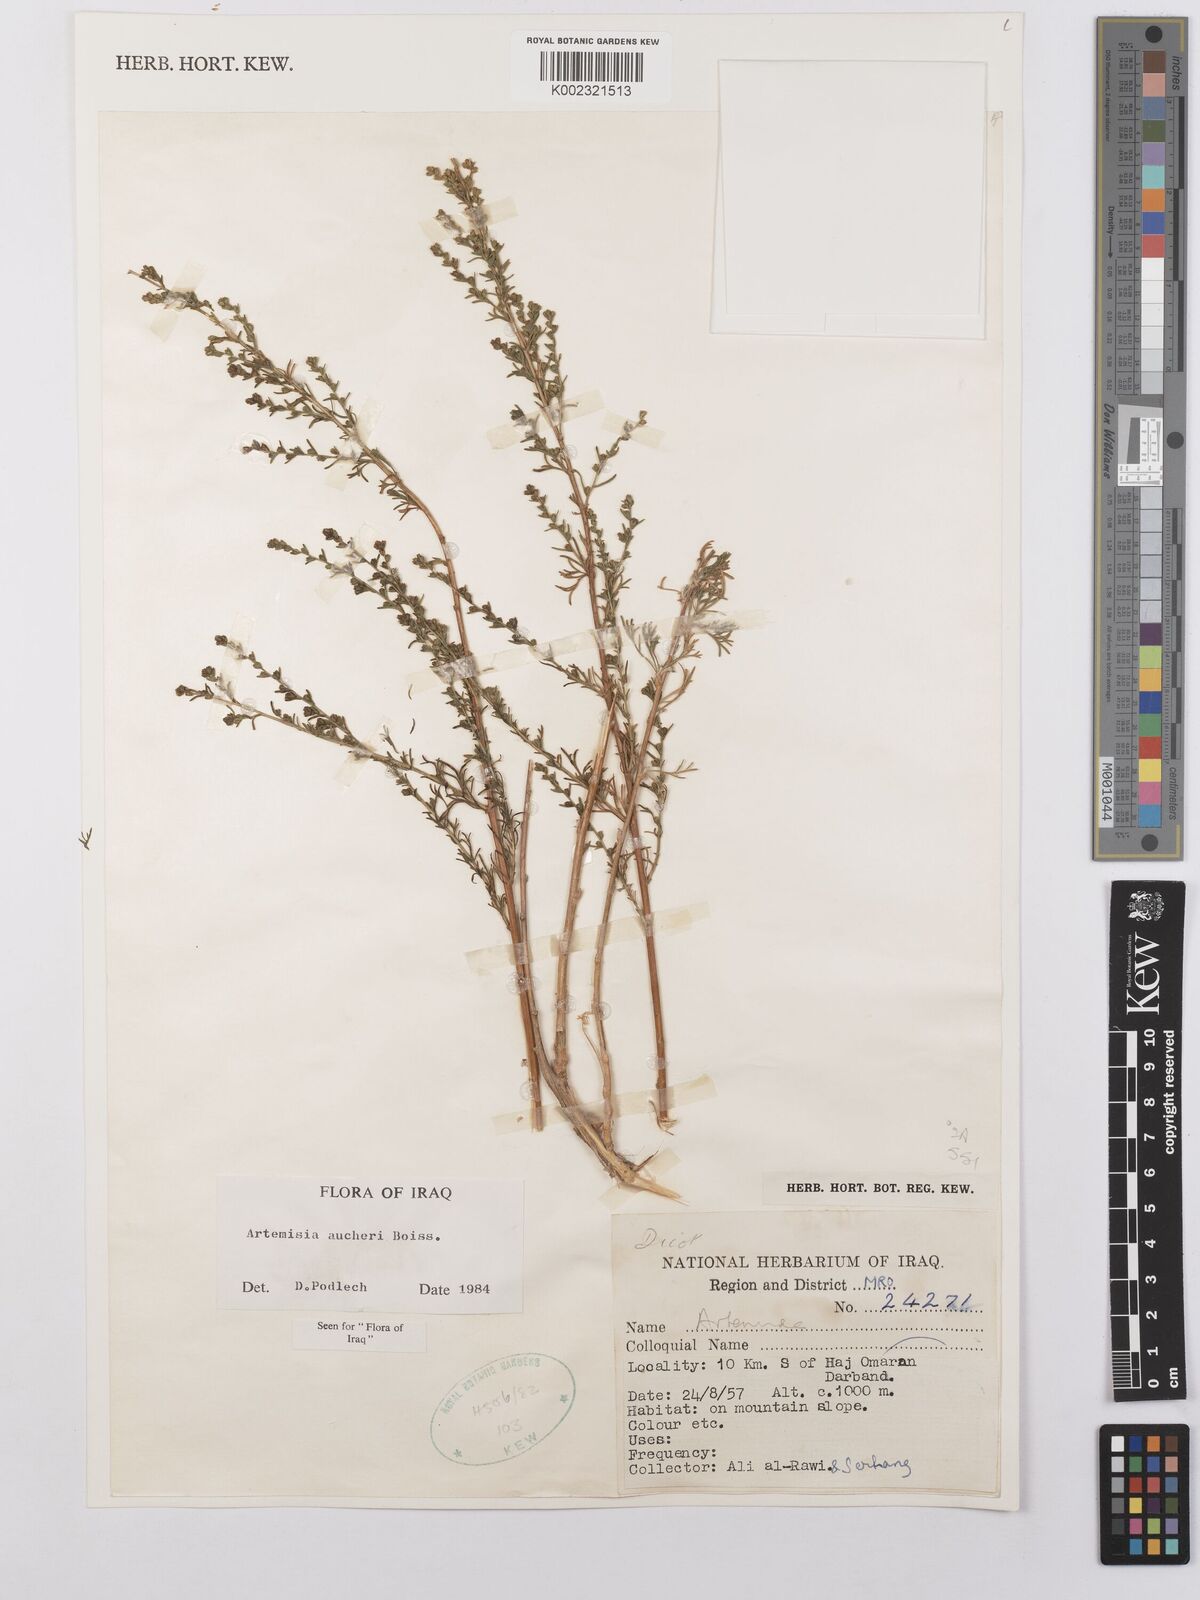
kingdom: Plantae
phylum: Tracheophyta
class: Magnoliopsida
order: Asterales
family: Asteraceae
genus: Artemisia
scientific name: Artemisia aucheri
